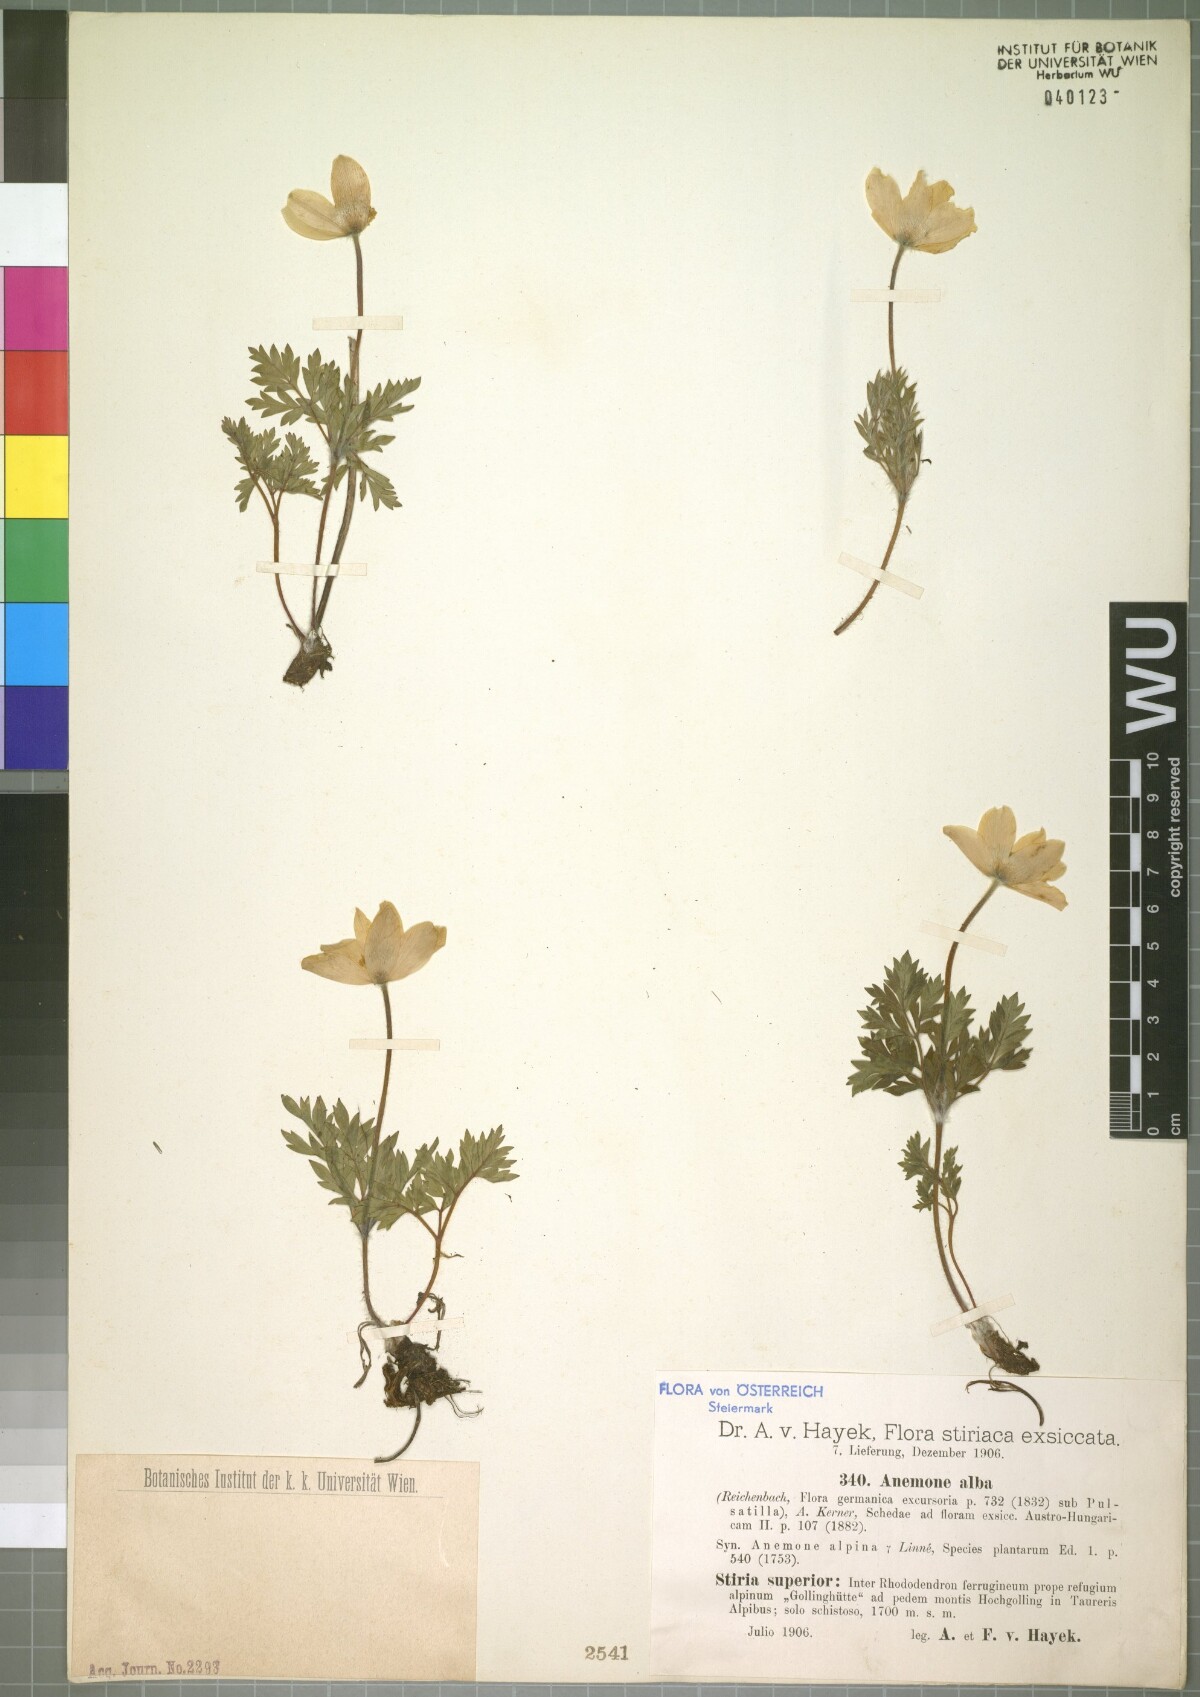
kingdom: Plantae
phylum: Tracheophyta
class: Magnoliopsida
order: Ranunculales
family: Ranunculaceae
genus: Pulsatilla
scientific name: Pulsatilla alpina
